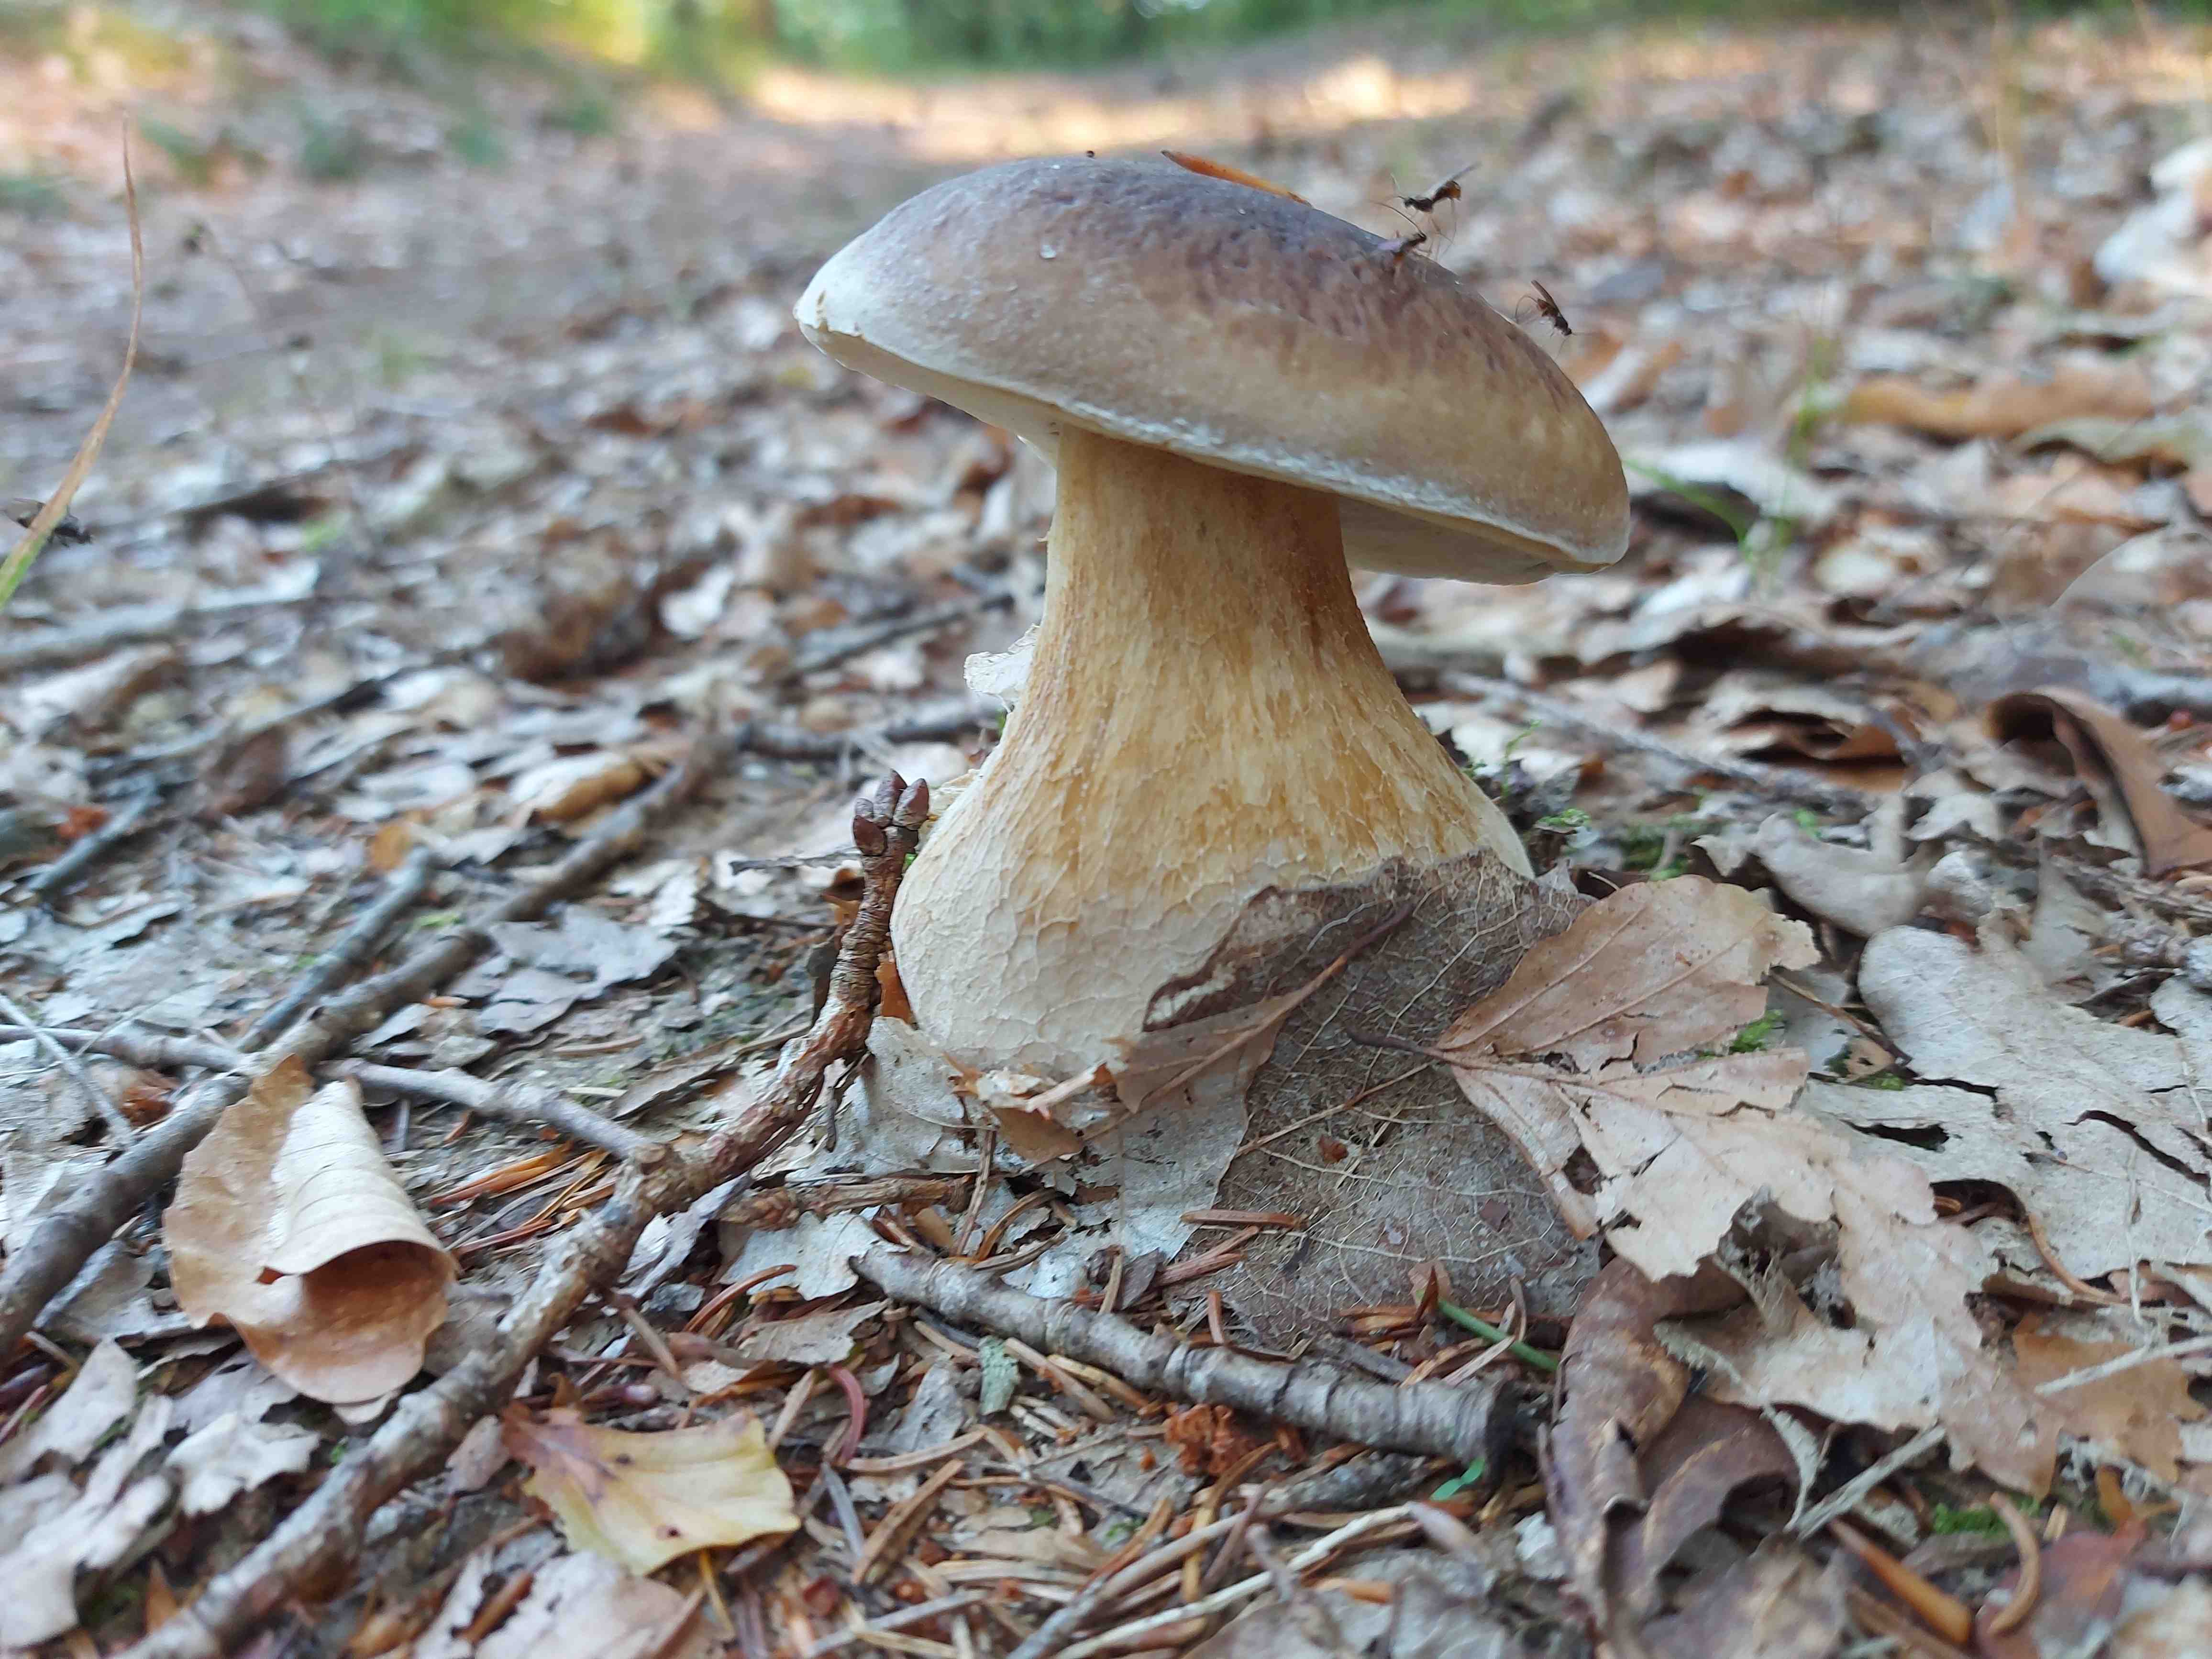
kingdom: Fungi
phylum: Basidiomycota
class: Agaricomycetes
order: Boletales
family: Boletaceae
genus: Boletus
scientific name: Boletus edulis
